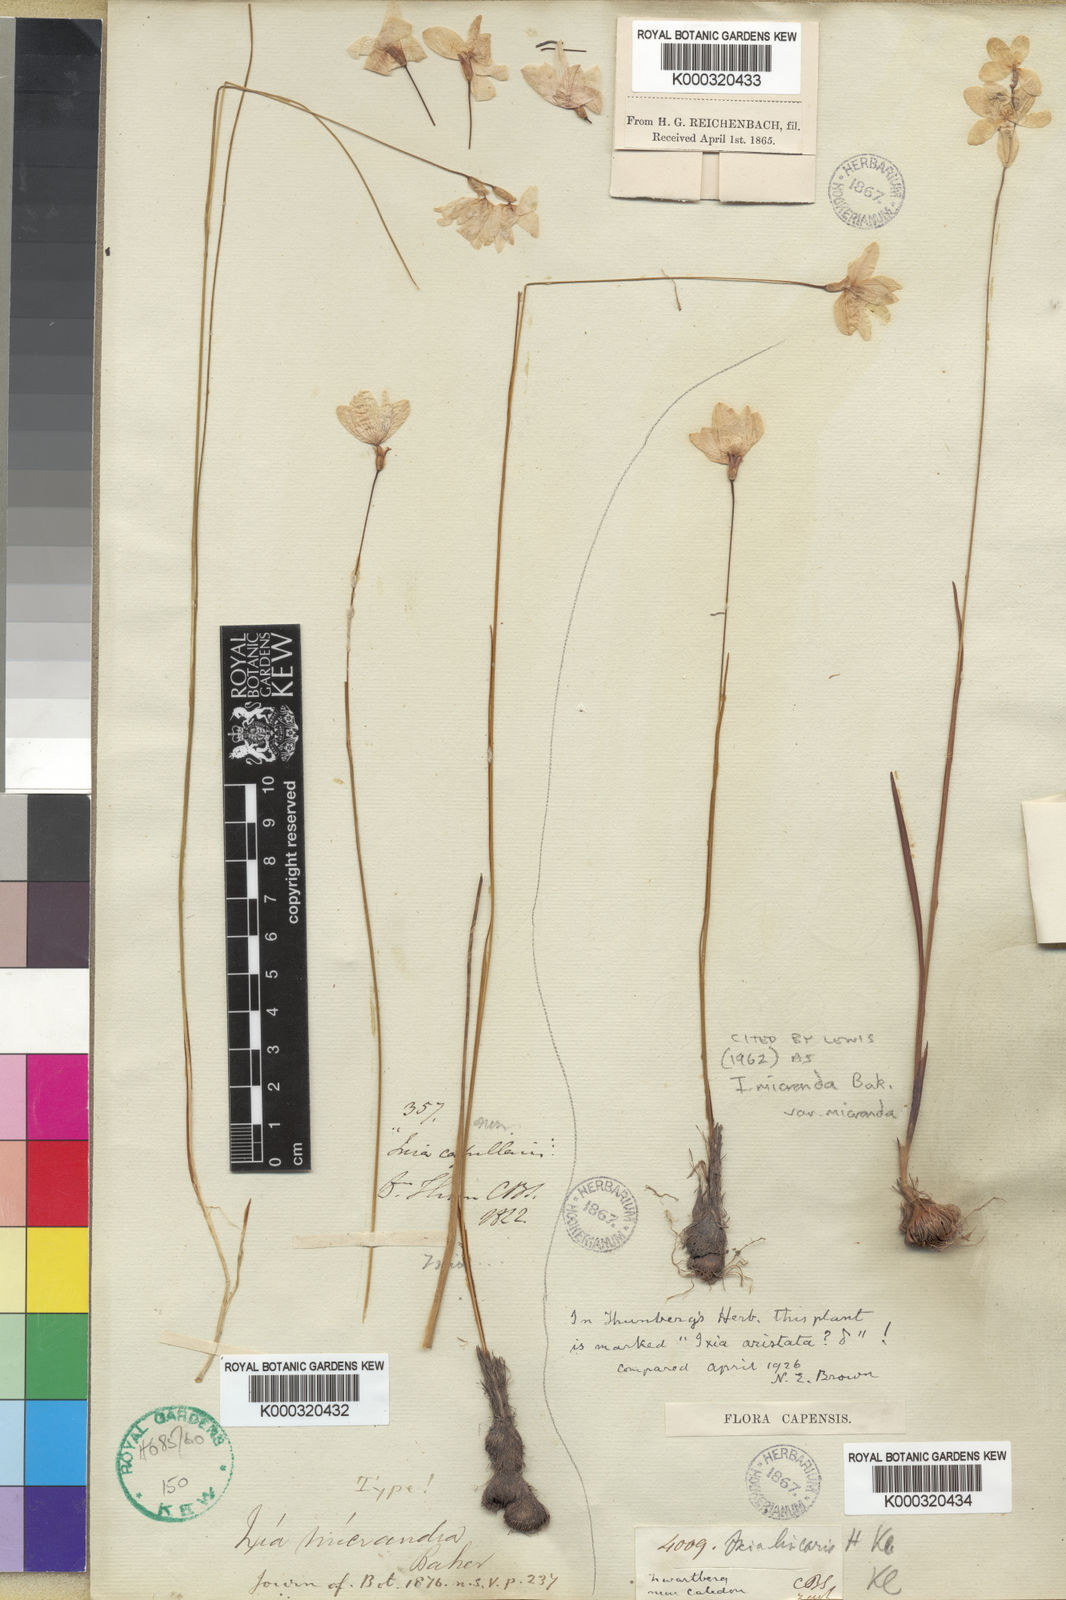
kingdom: Plantae
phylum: Tracheophyta
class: Liliopsida
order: Asparagales
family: Iridaceae
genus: Ixia
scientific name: Ixia micrandra
